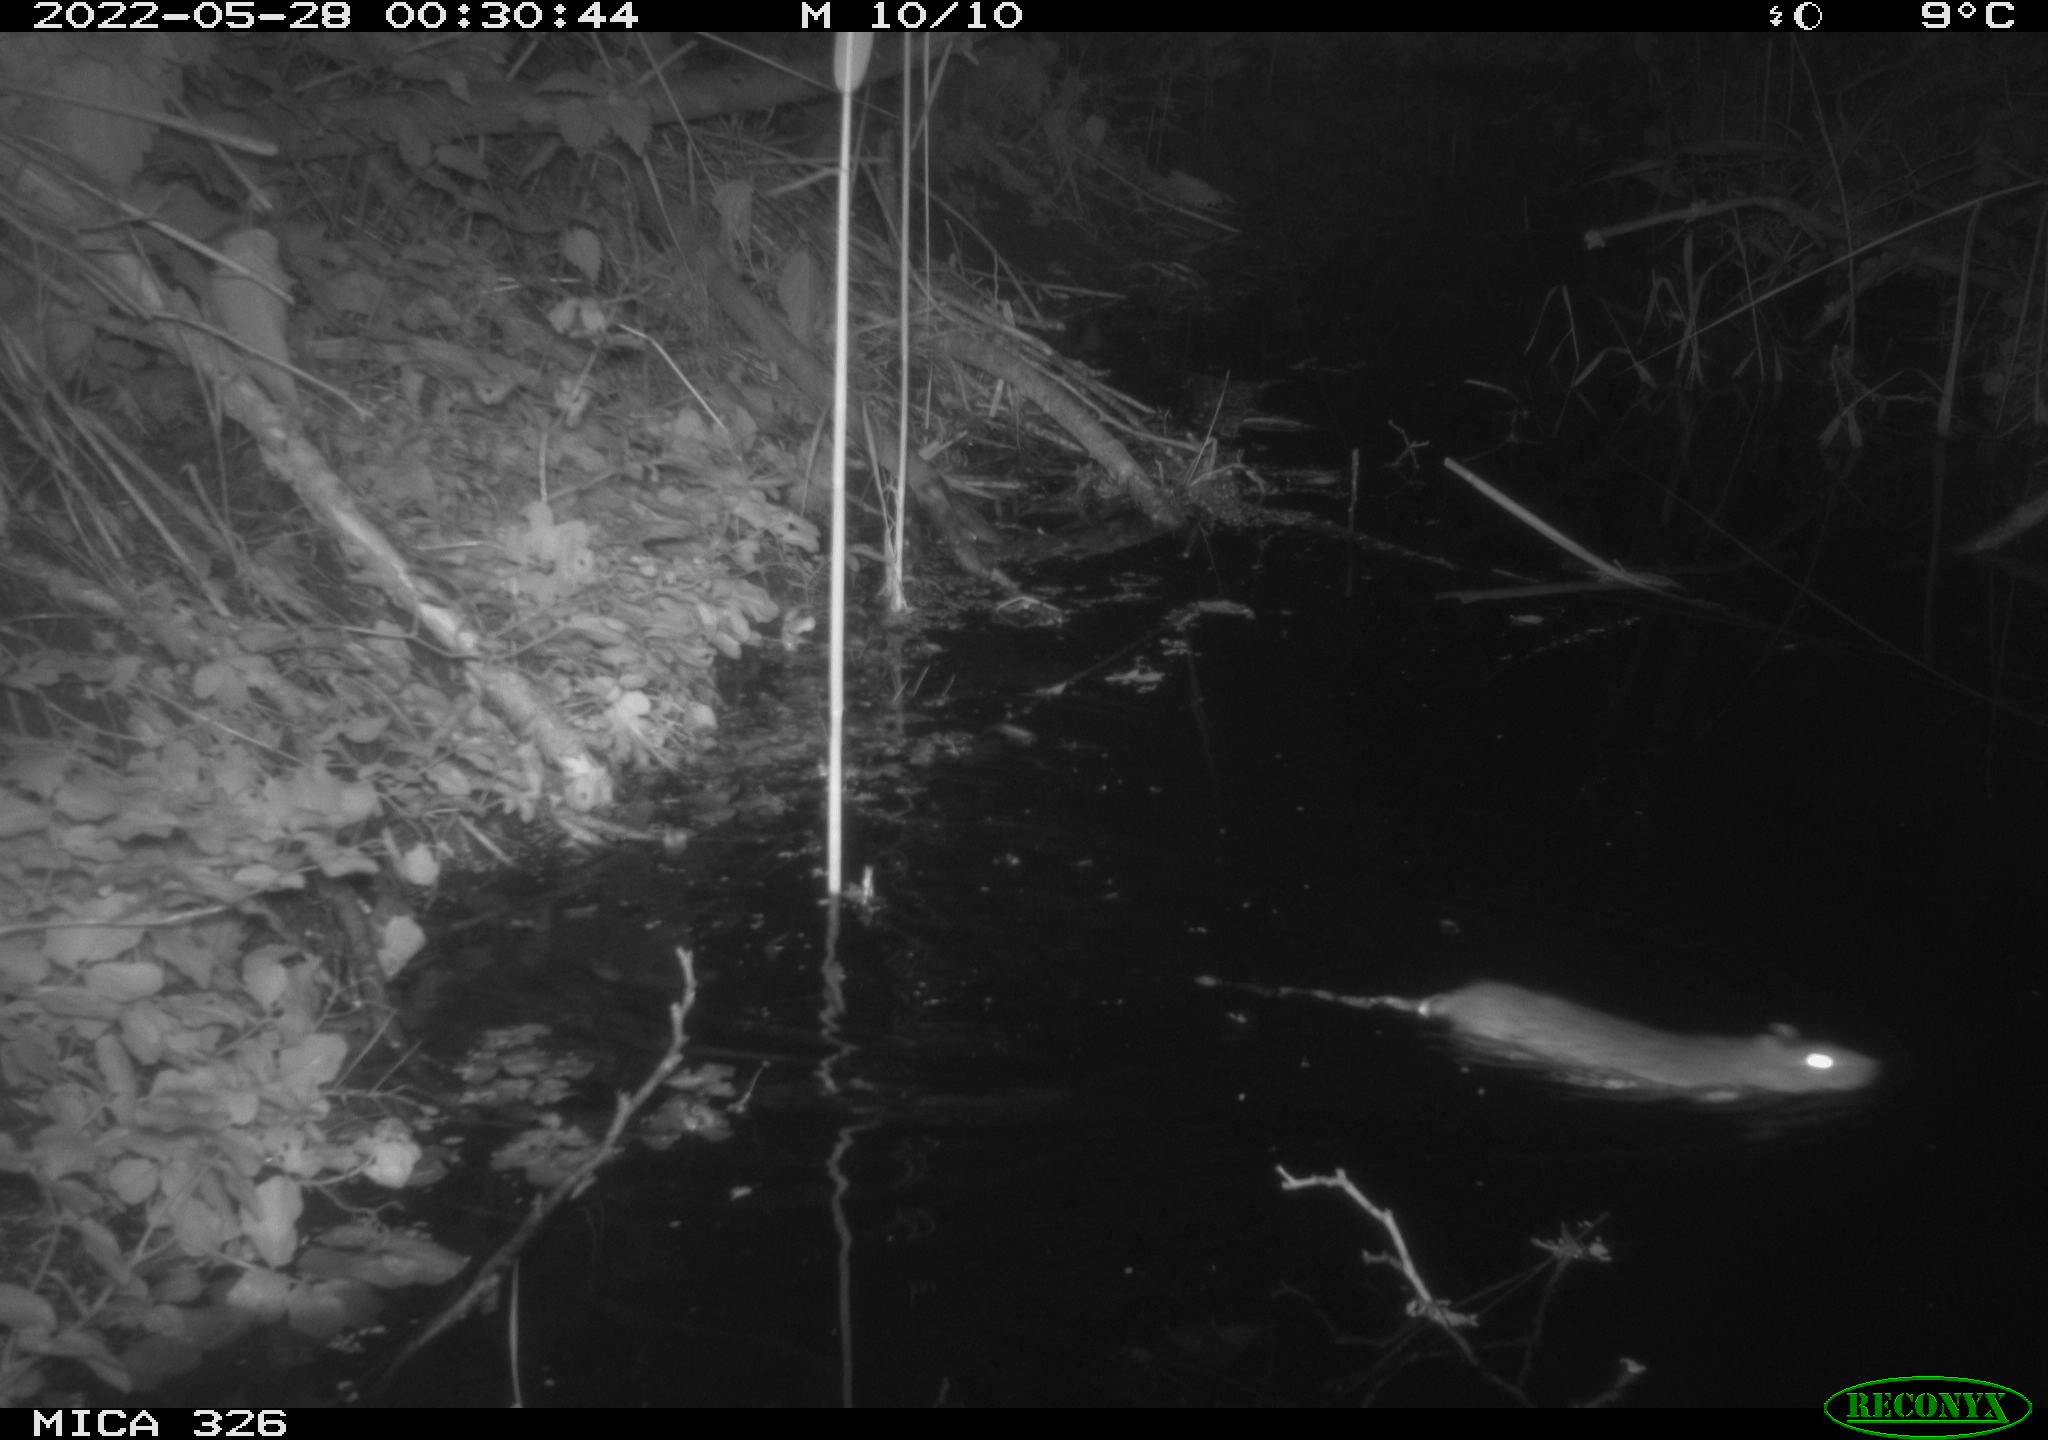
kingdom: Animalia
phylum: Chordata
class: Mammalia
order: Rodentia
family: Muridae
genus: Rattus
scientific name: Rattus norvegicus
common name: Brown rat
